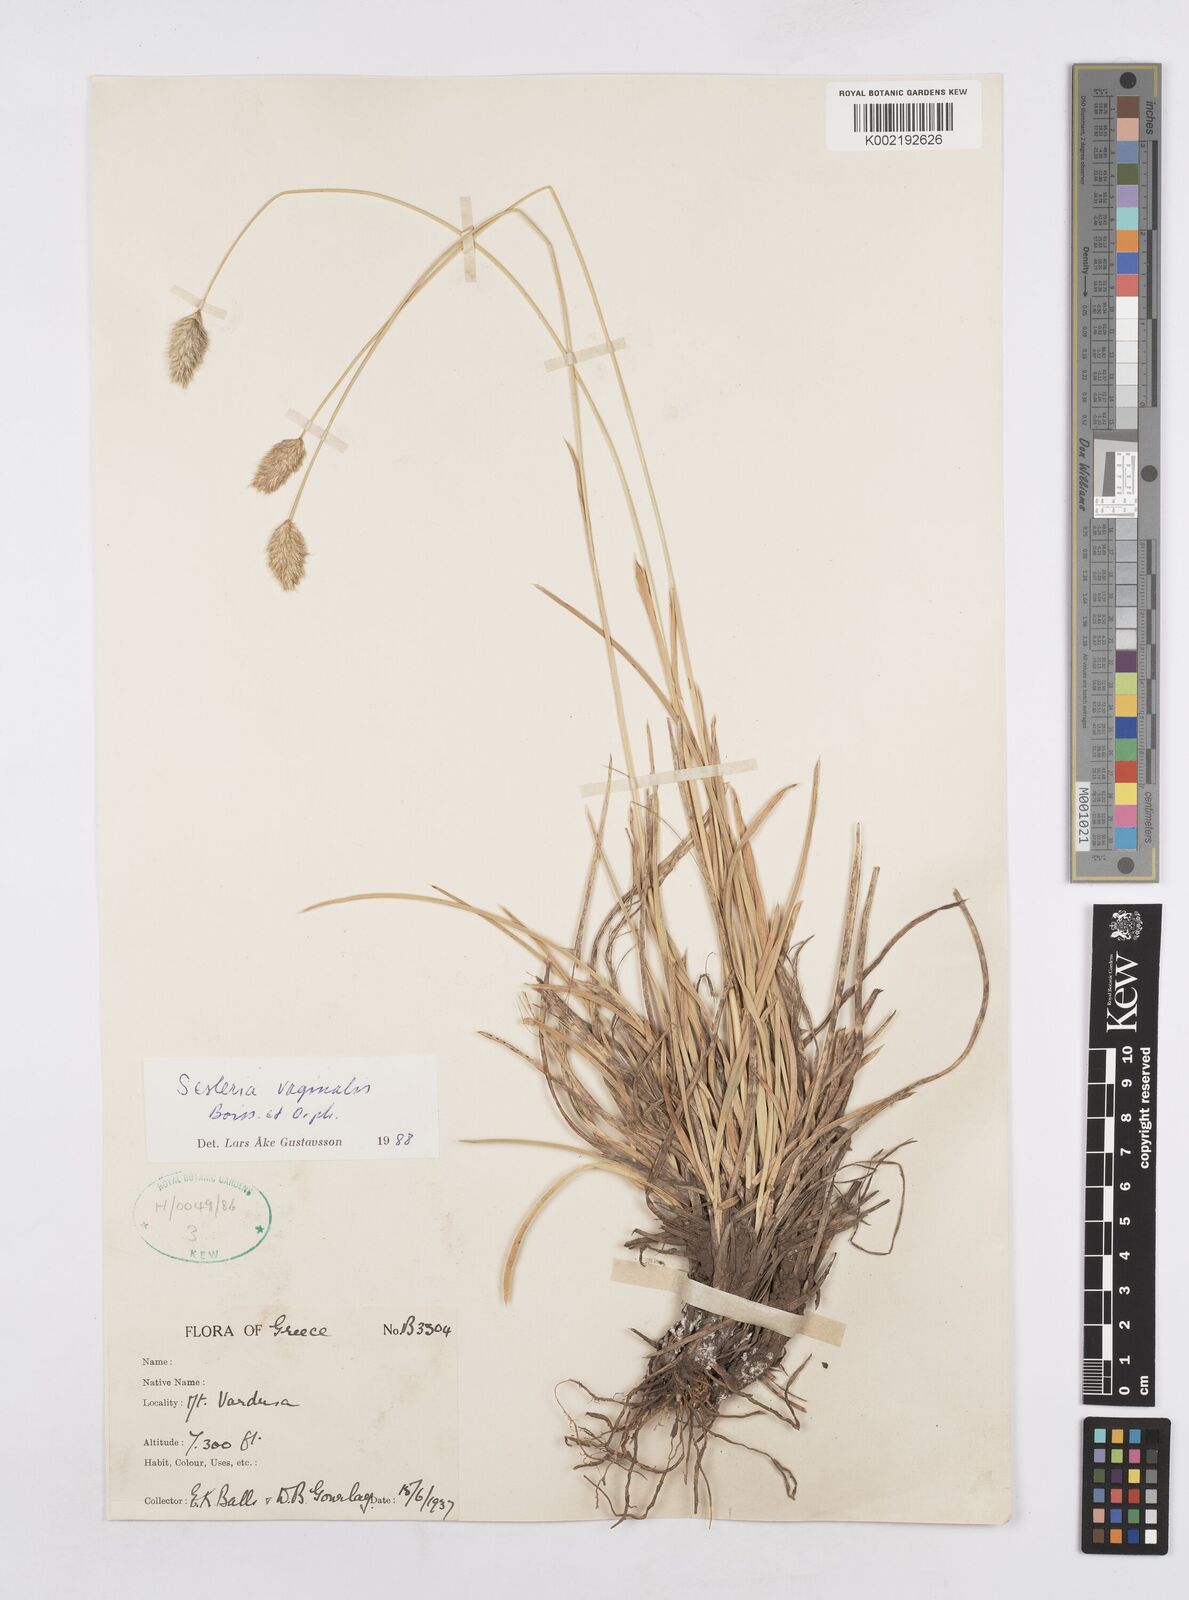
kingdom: Plantae
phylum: Tracheophyta
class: Liliopsida
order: Poales
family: Poaceae
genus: Sesleria
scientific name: Sesleria vaginalis
